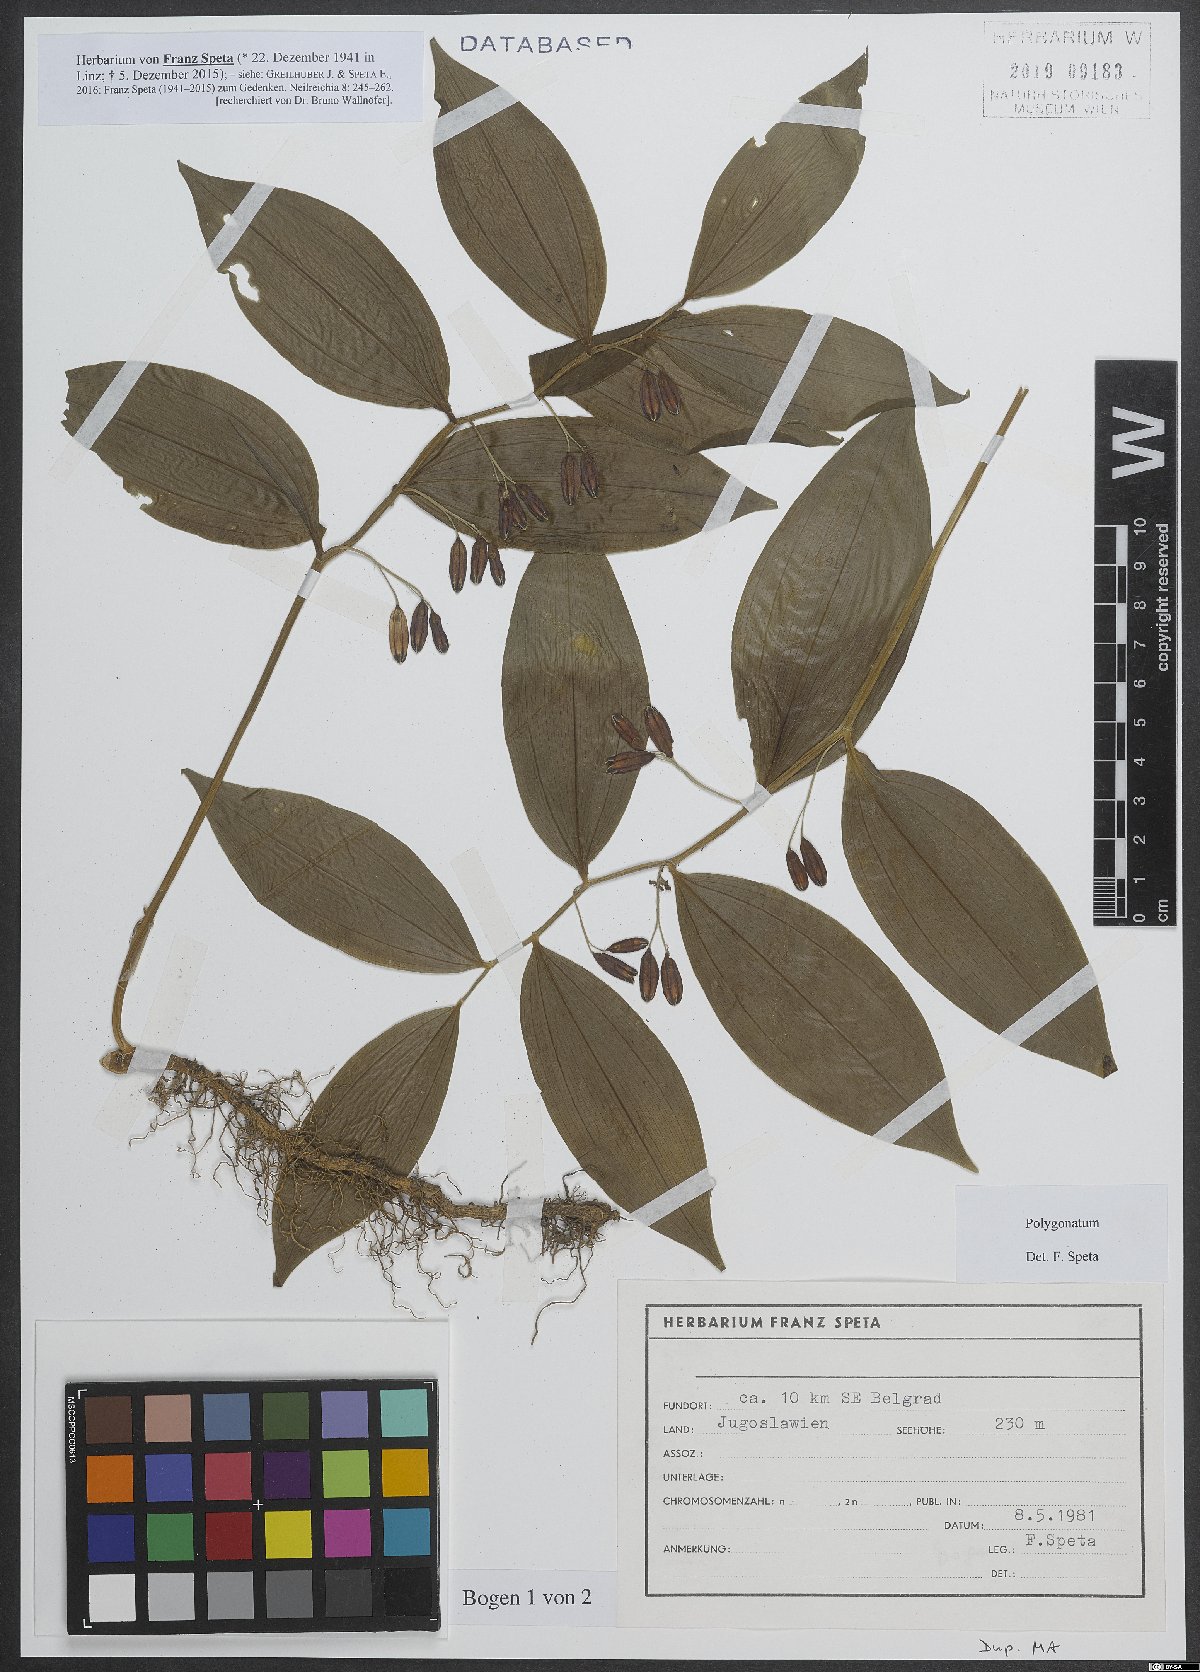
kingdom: Plantae
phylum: Tracheophyta
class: Liliopsida
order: Asparagales
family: Asparagaceae
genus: Polygonatum
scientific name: Polygonatum
